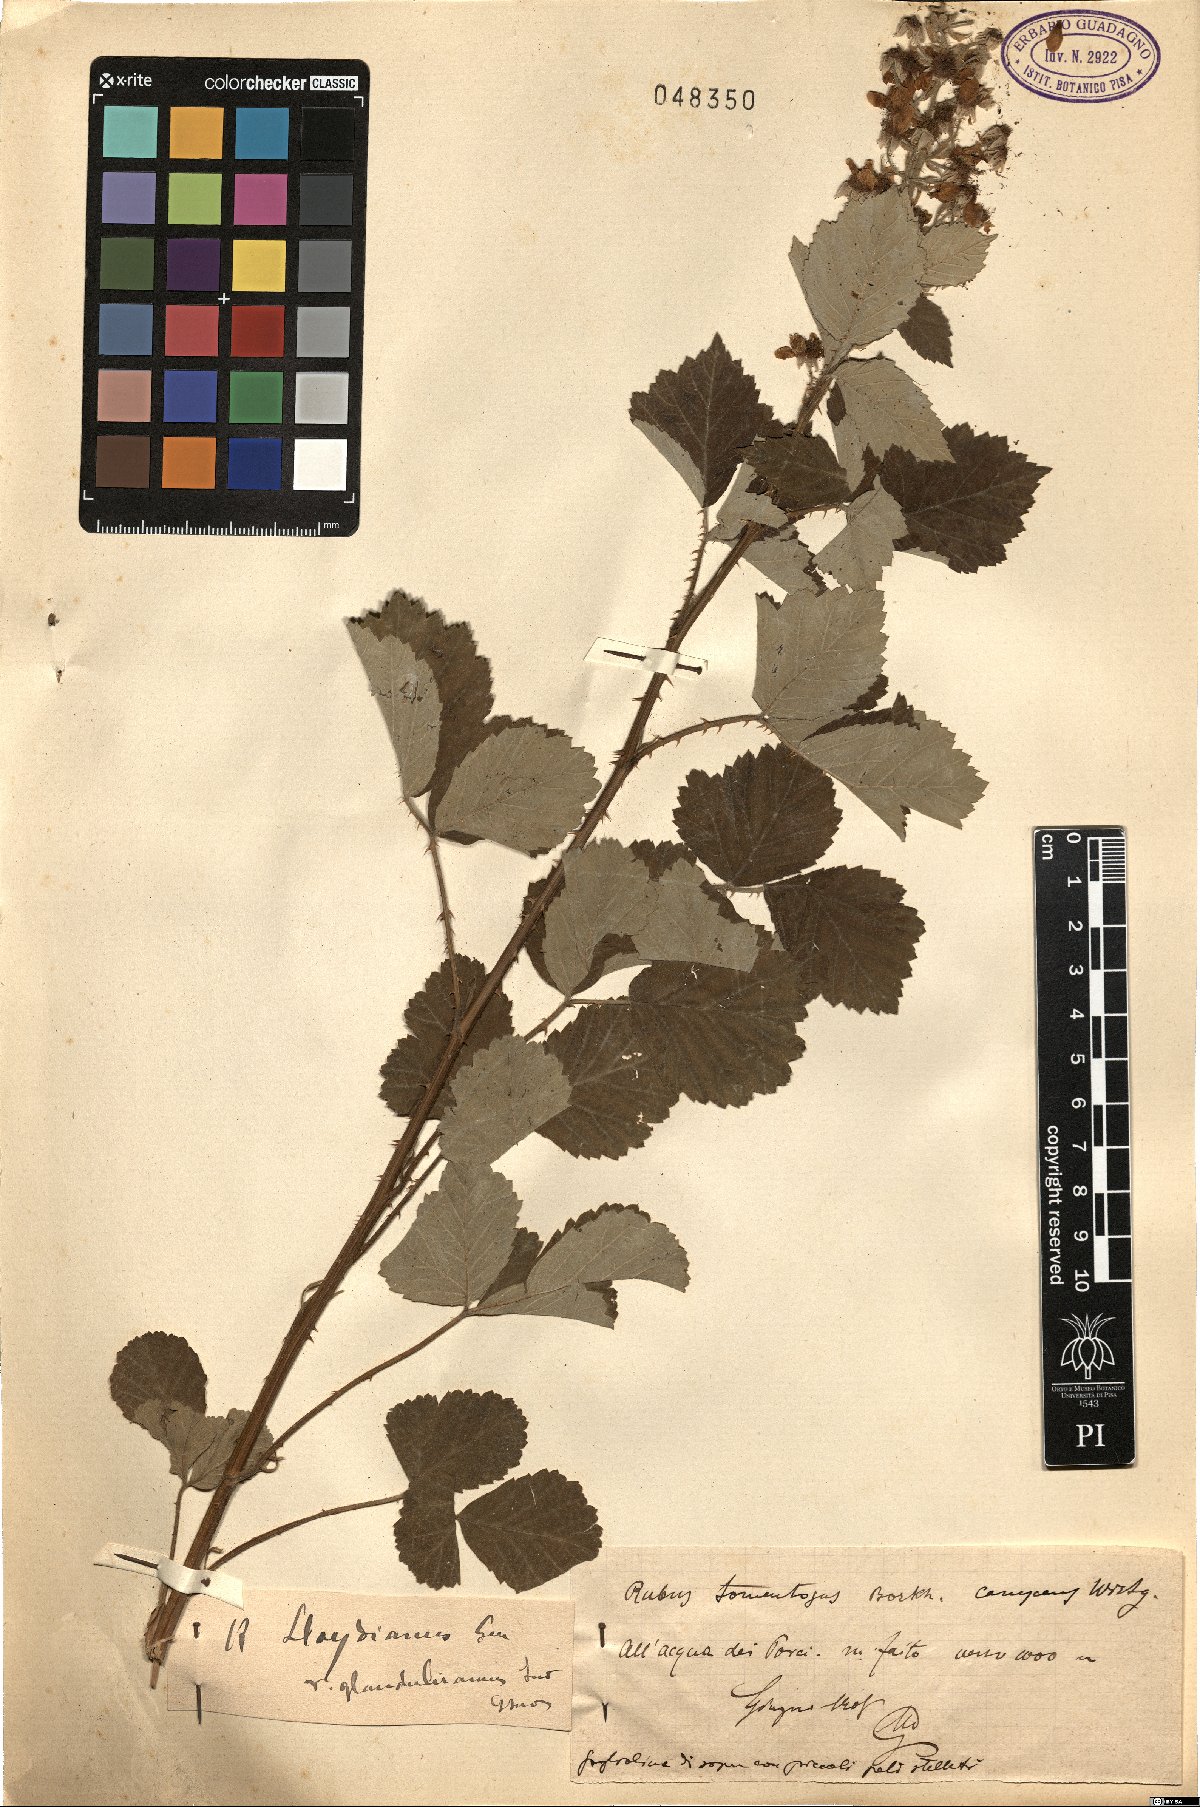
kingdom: Plantae
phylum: Tracheophyta
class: Magnoliopsida
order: Rosales
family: Rosaceae
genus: Rubus
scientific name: Rubus aetnicus
